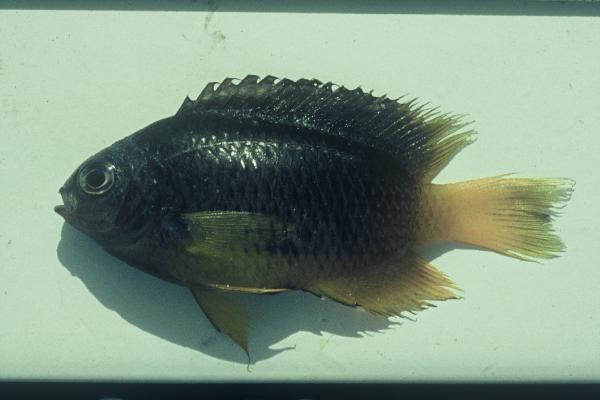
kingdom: Animalia
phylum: Chordata
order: Perciformes
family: Pomacentridae
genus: Pomacentrus
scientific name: Pomacentrus trichrourus
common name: Paletail damsel
